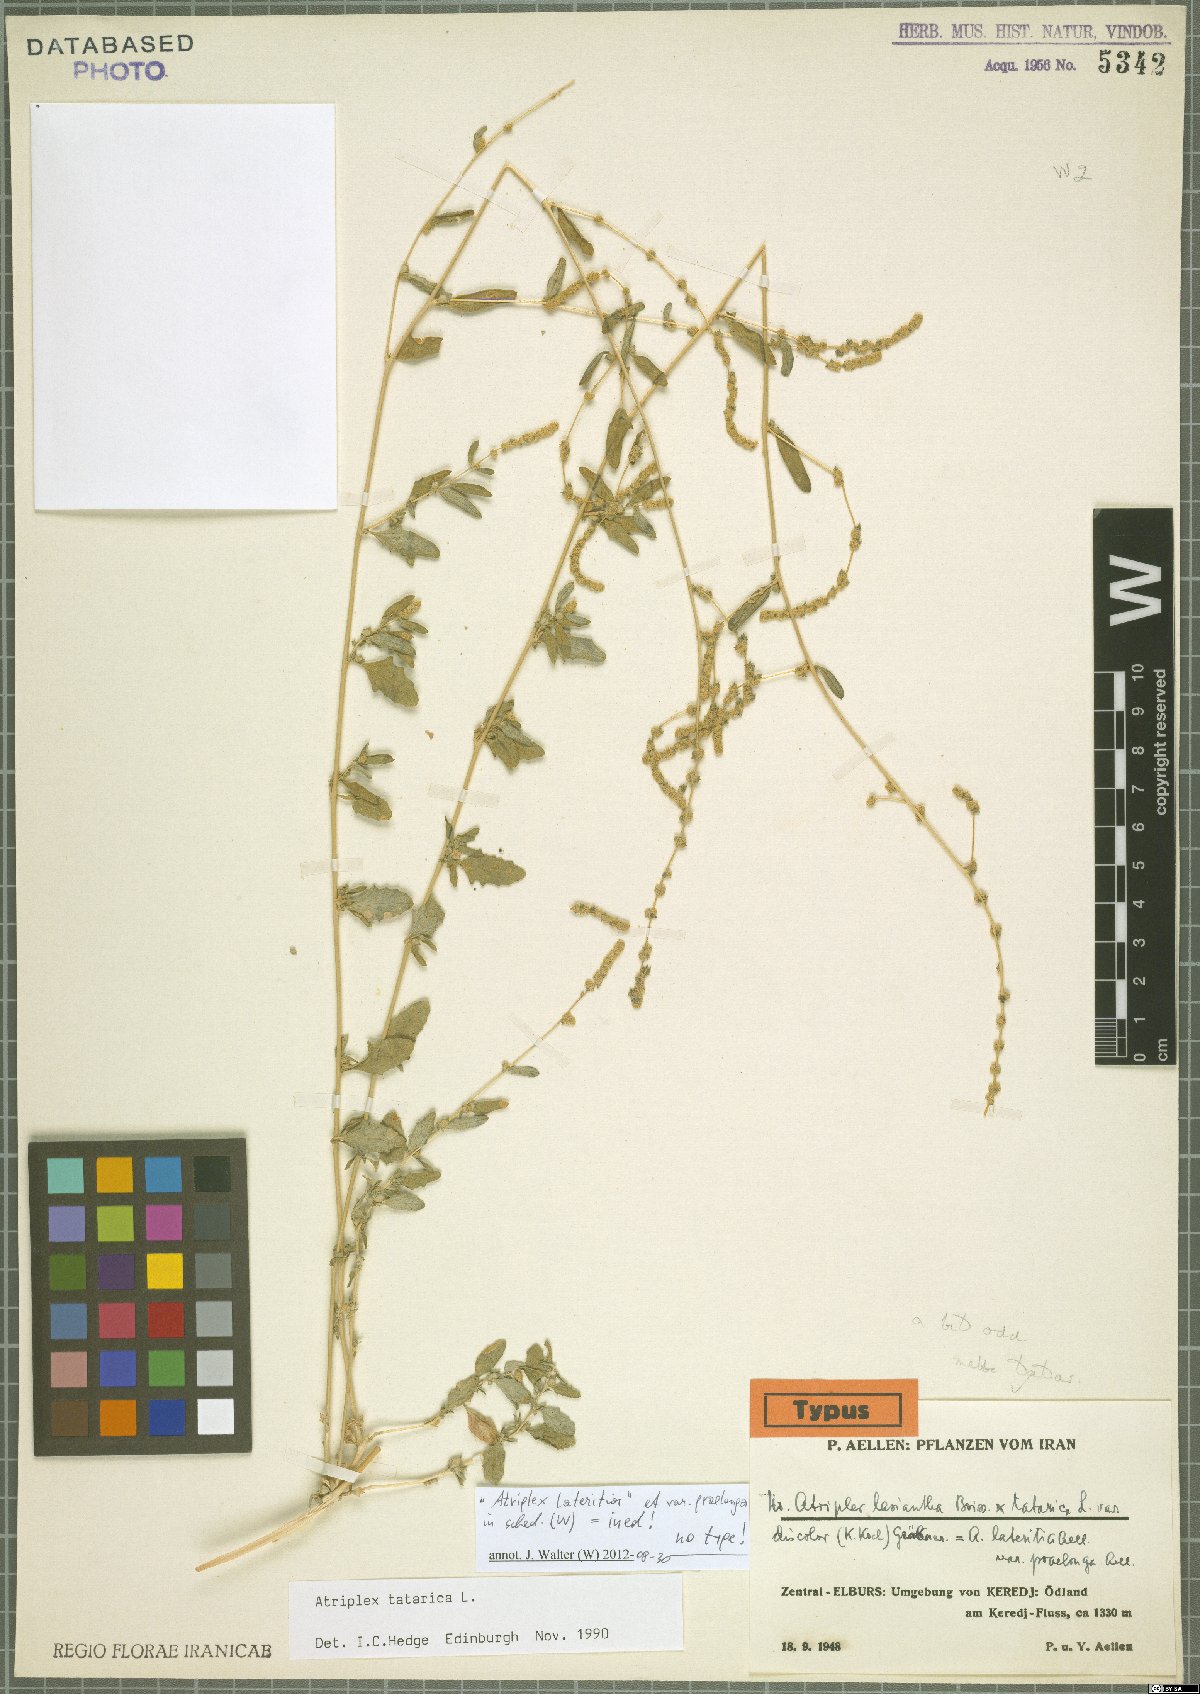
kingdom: Plantae
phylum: Tracheophyta
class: Magnoliopsida
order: Caryophyllales
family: Amaranthaceae
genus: Atriplex
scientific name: Atriplex tatarica
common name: Tatarian orache
